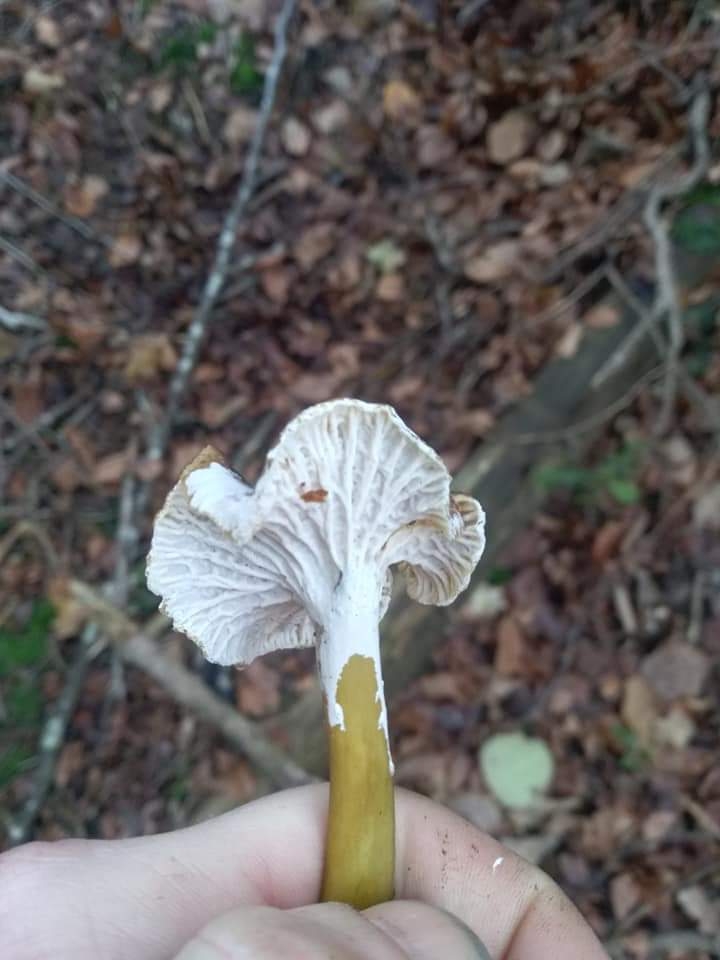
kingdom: Fungi
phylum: Basidiomycota
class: Agaricomycetes
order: Cantharellales
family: Hydnaceae
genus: Craterellus
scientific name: Craterellus
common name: kantarel
